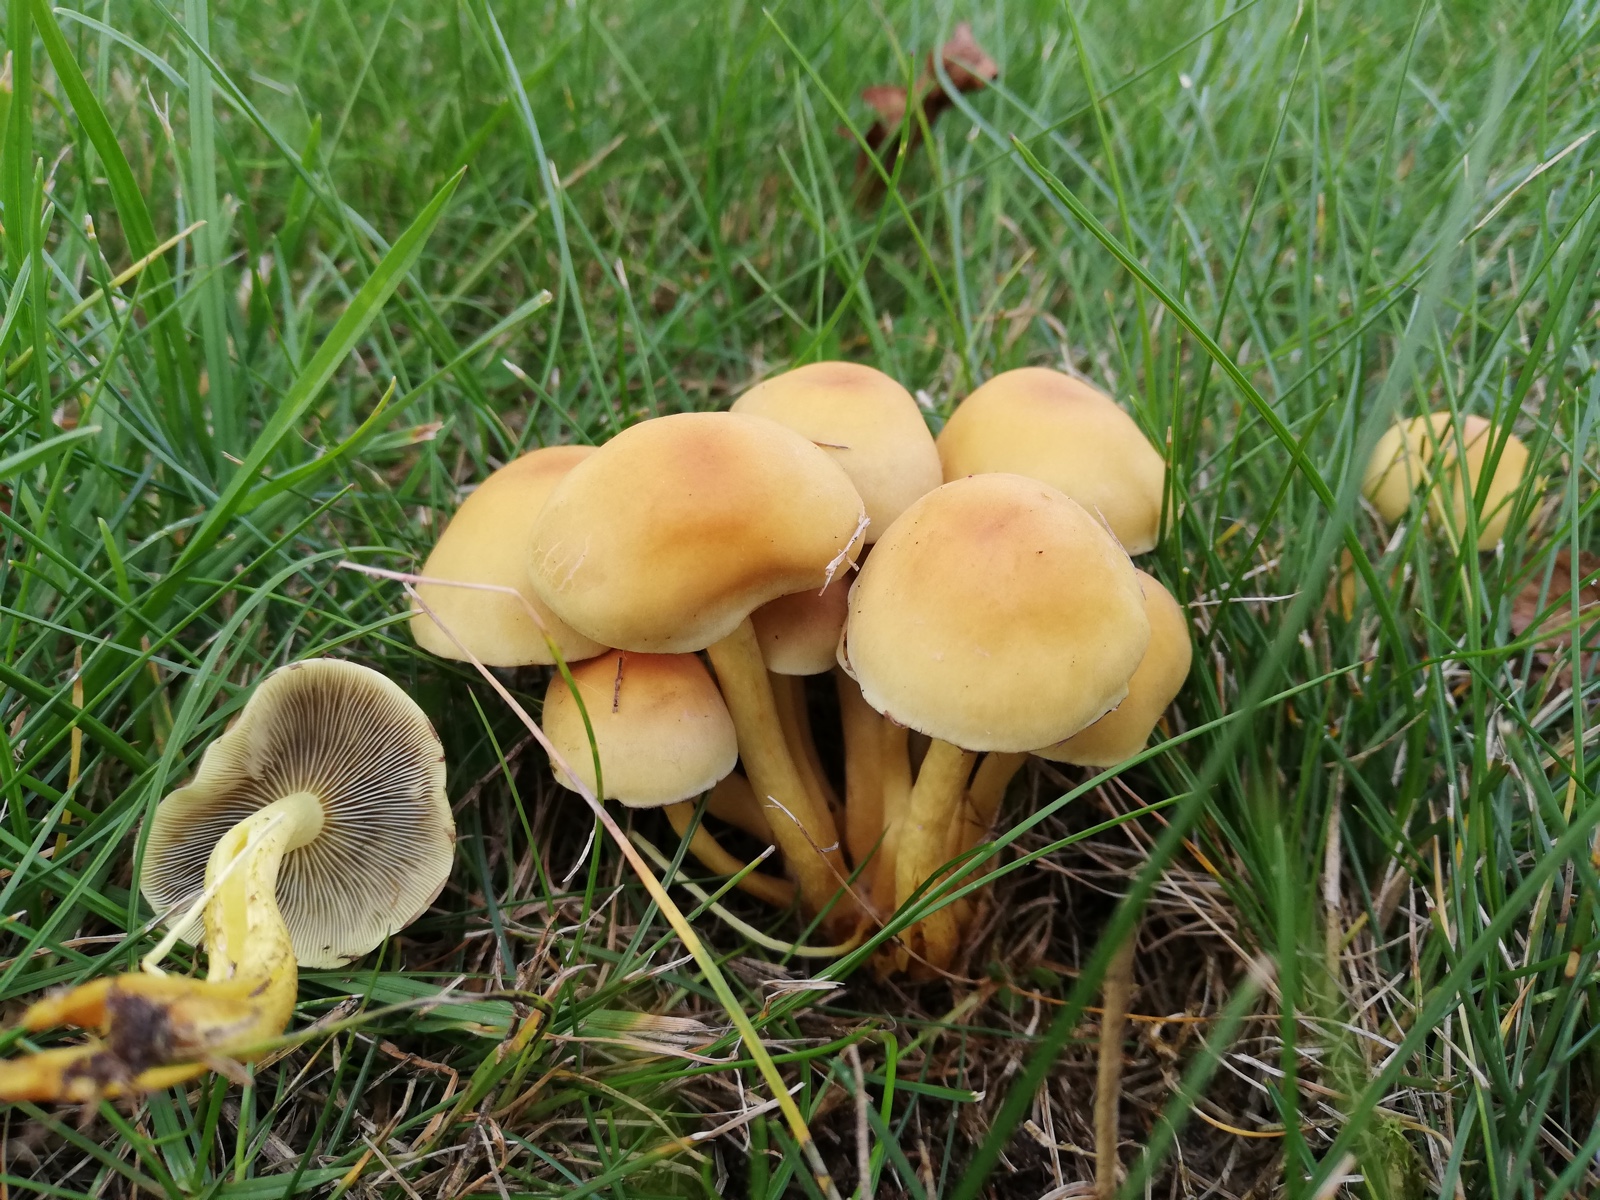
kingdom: Fungi
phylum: Basidiomycota
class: Agaricomycetes
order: Agaricales
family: Strophariaceae
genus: Hypholoma
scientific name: Hypholoma fasciculare
